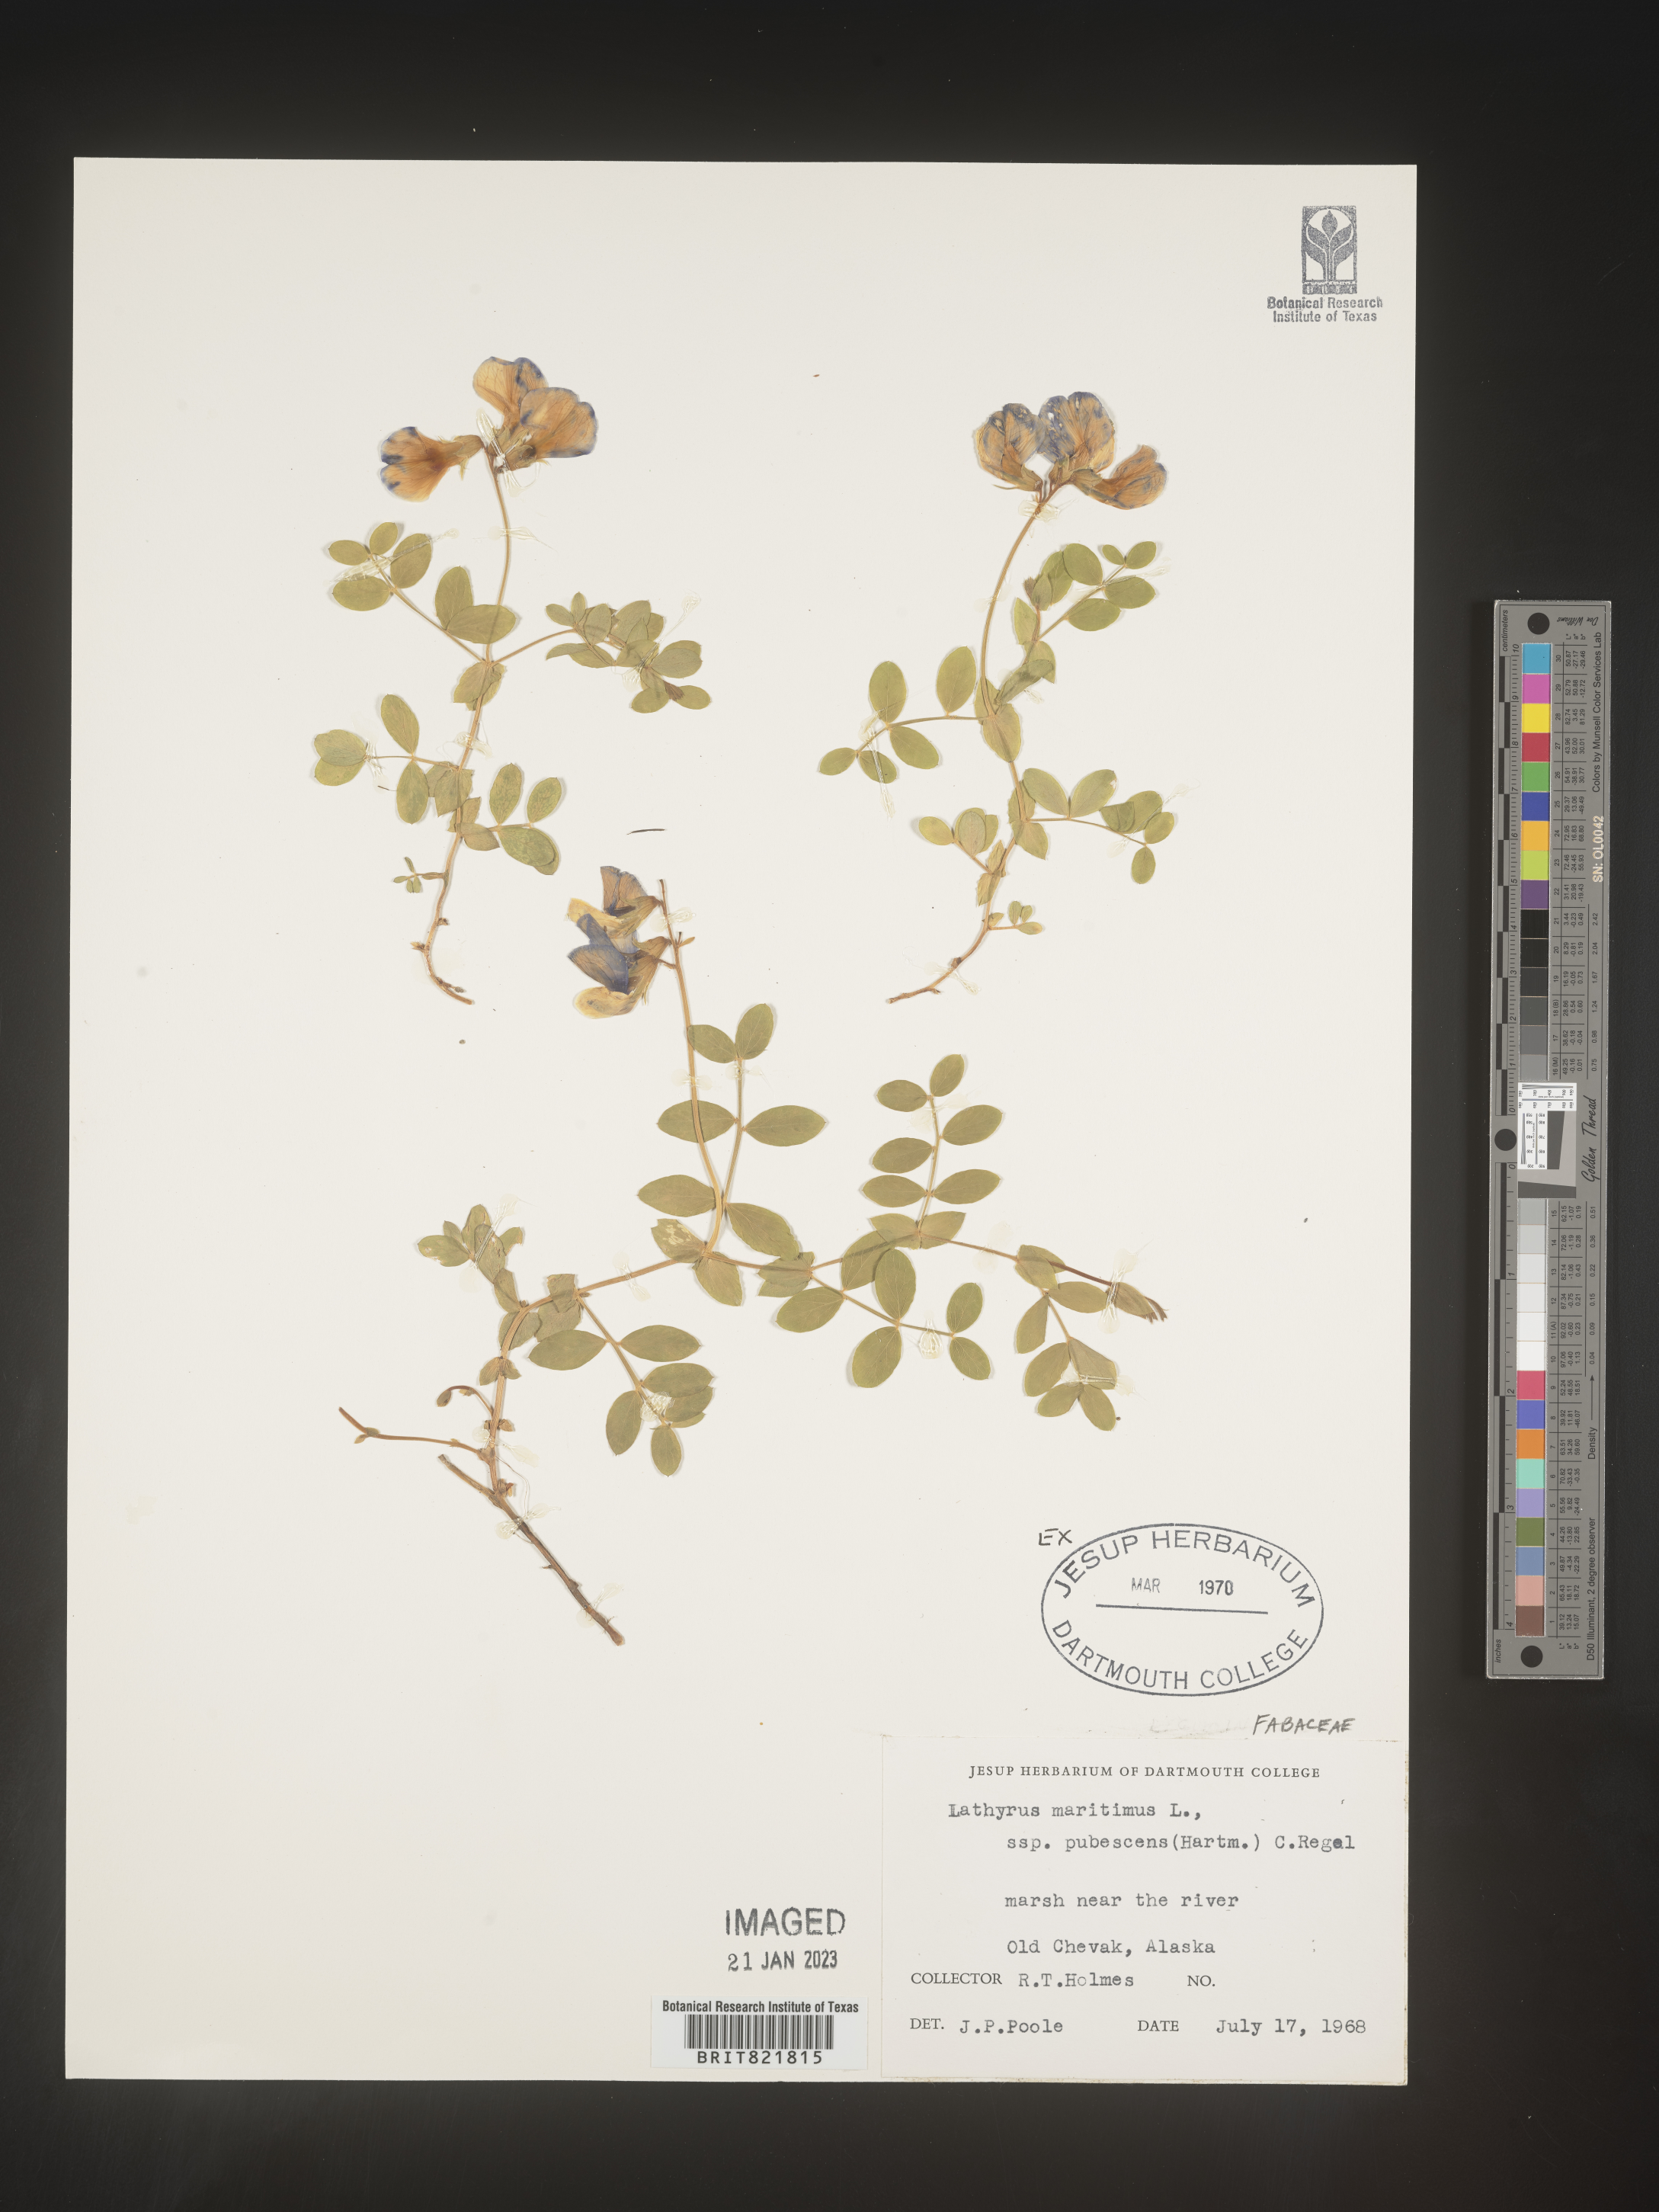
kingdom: Plantae
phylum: Tracheophyta
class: Magnoliopsida
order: Fabales
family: Fabaceae
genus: Lathyrus
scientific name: Lathyrus japonicus
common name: Sea pea
